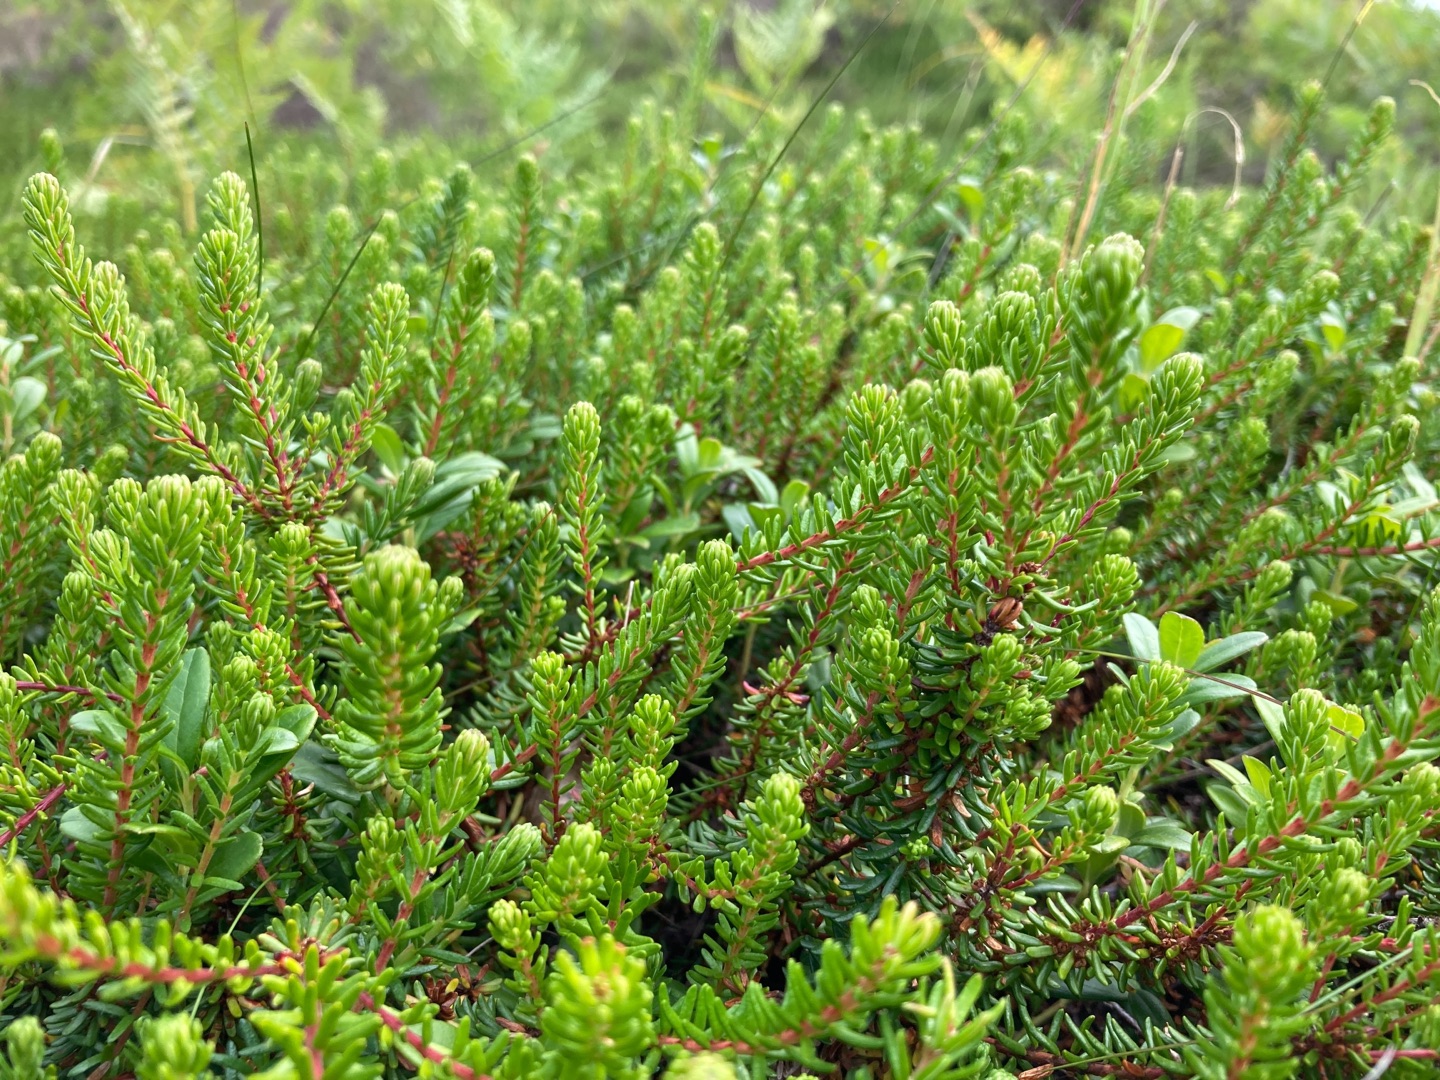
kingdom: Plantae
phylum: Tracheophyta
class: Magnoliopsida
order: Ericales
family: Ericaceae
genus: Empetrum
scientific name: Empetrum nigrum
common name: Revling
